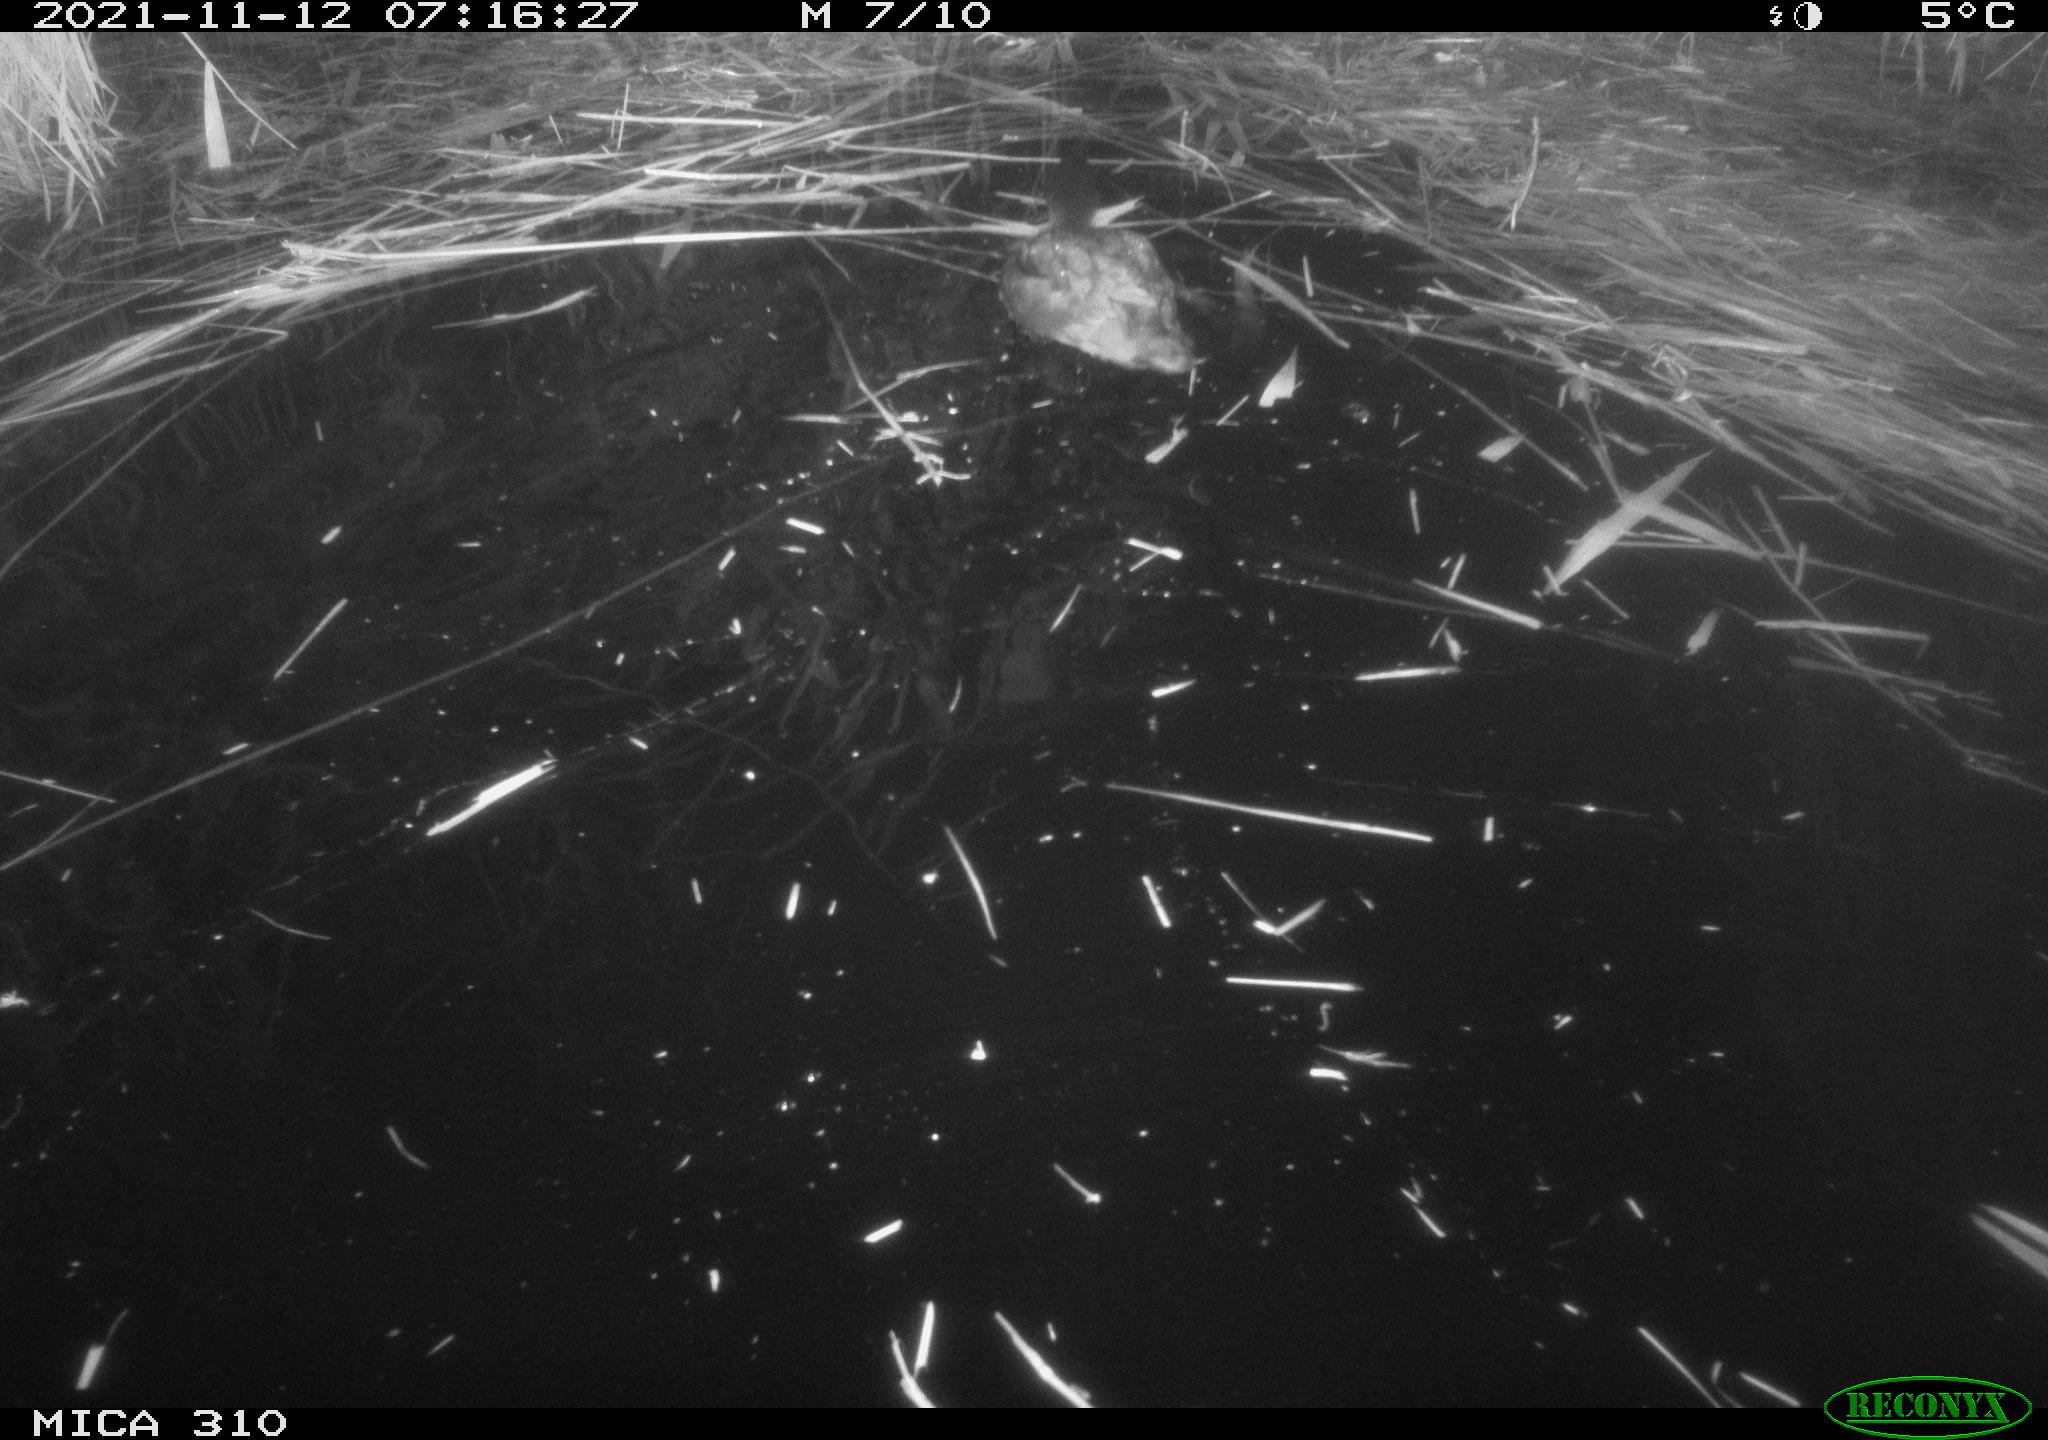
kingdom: Animalia
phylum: Chordata
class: Aves
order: Gruiformes
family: Rallidae
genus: Gallinula
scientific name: Gallinula chloropus
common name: Common moorhen
